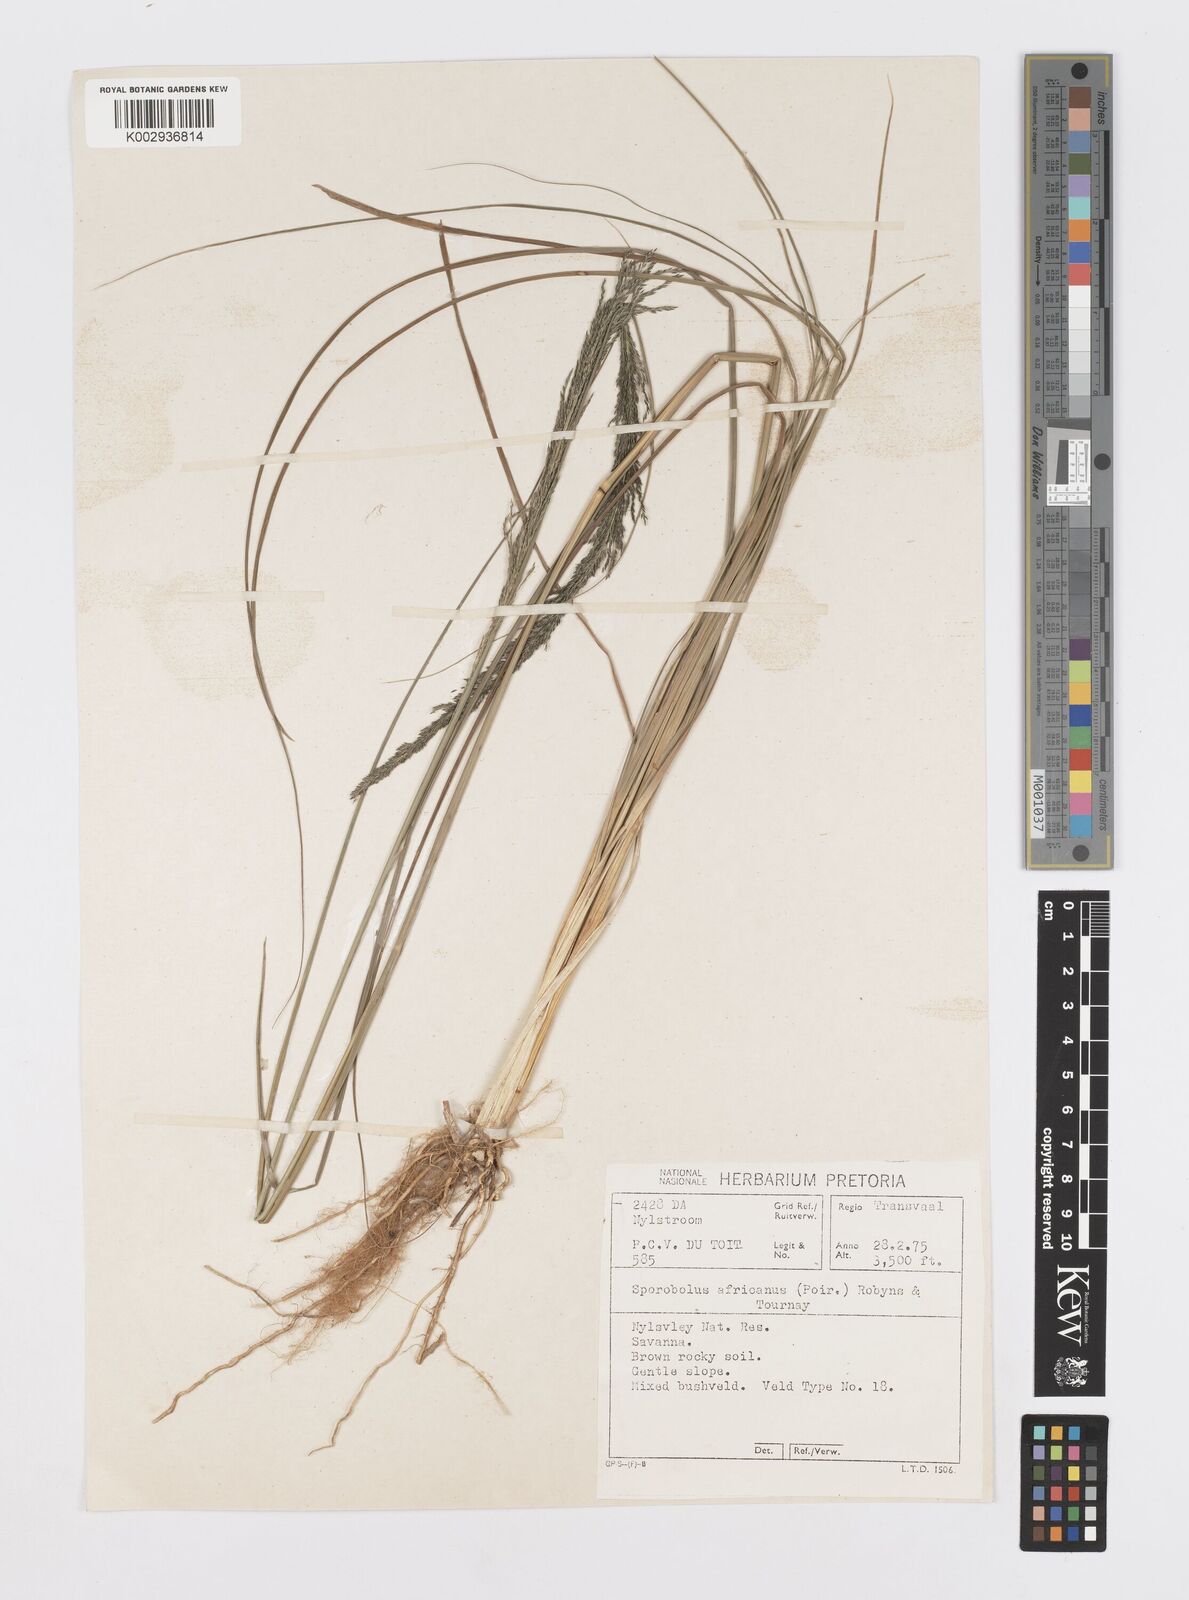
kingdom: Plantae
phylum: Tracheophyta
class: Liliopsida
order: Poales
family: Poaceae
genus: Sporobolus
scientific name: Sporobolus africanus
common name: African dropseed
